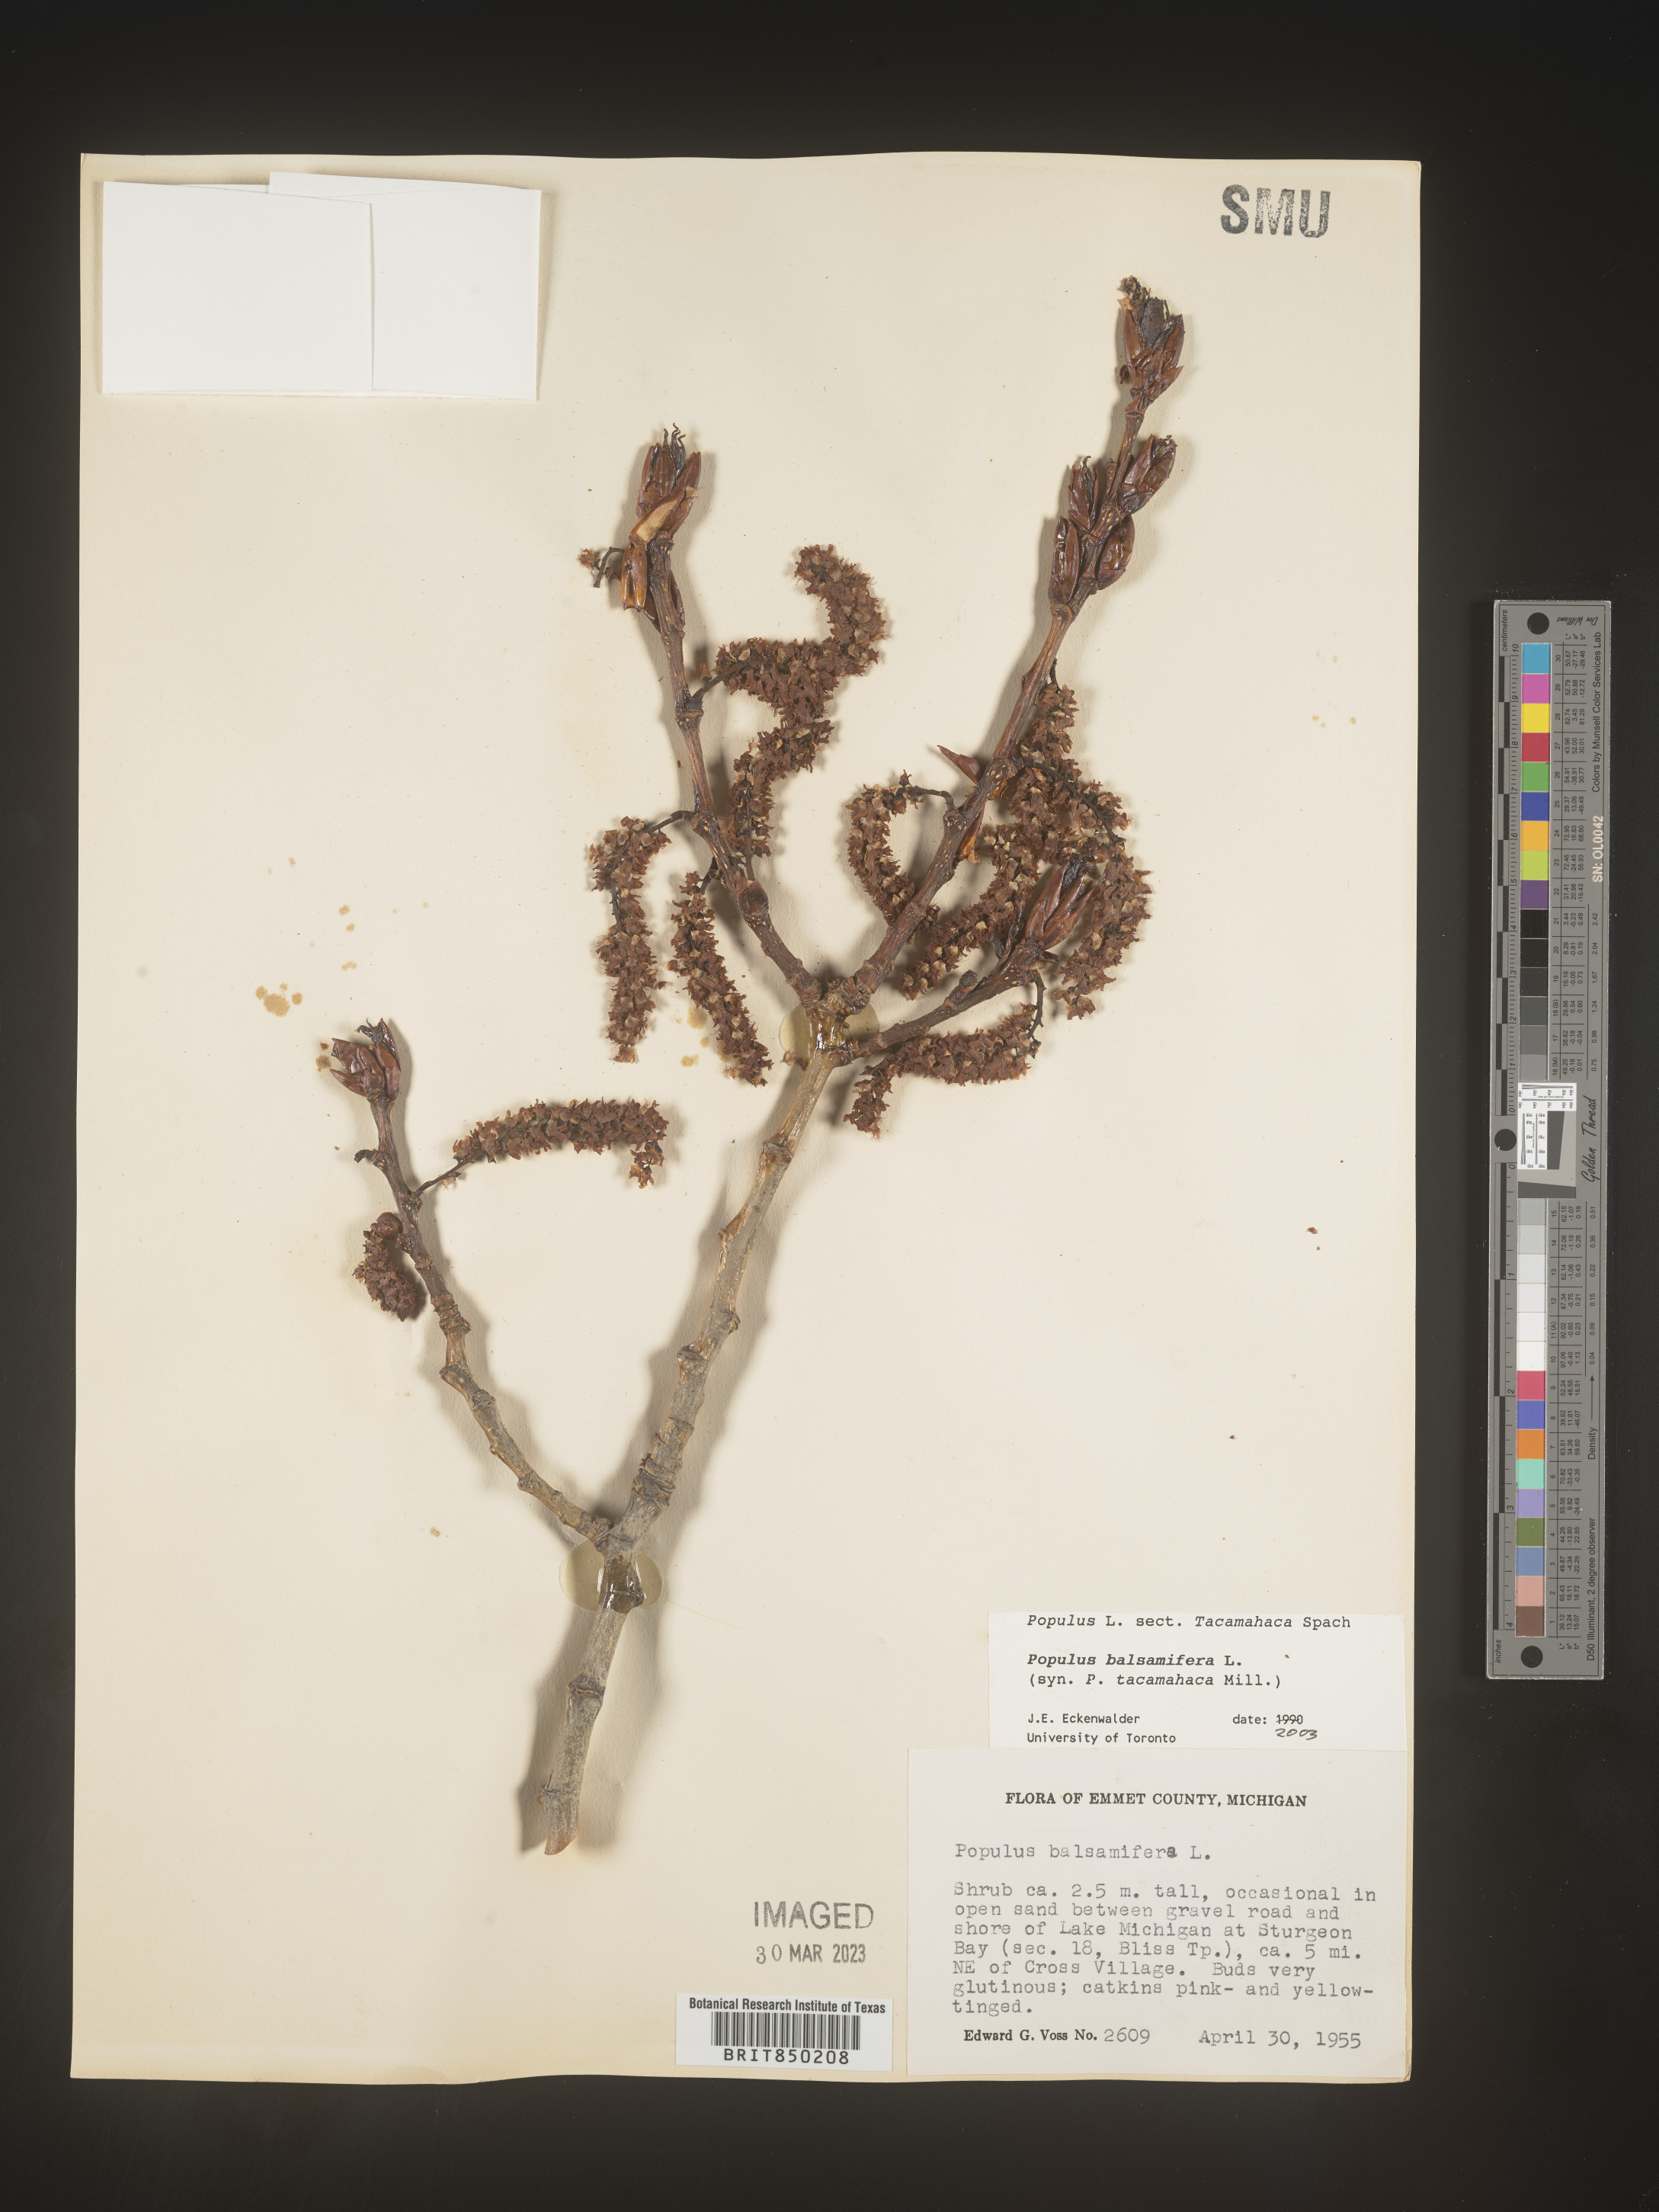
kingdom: Plantae
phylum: Tracheophyta
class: Magnoliopsida
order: Malpighiales
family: Salicaceae
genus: Populus
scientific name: Populus balsamifera
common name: Balsam poplar
